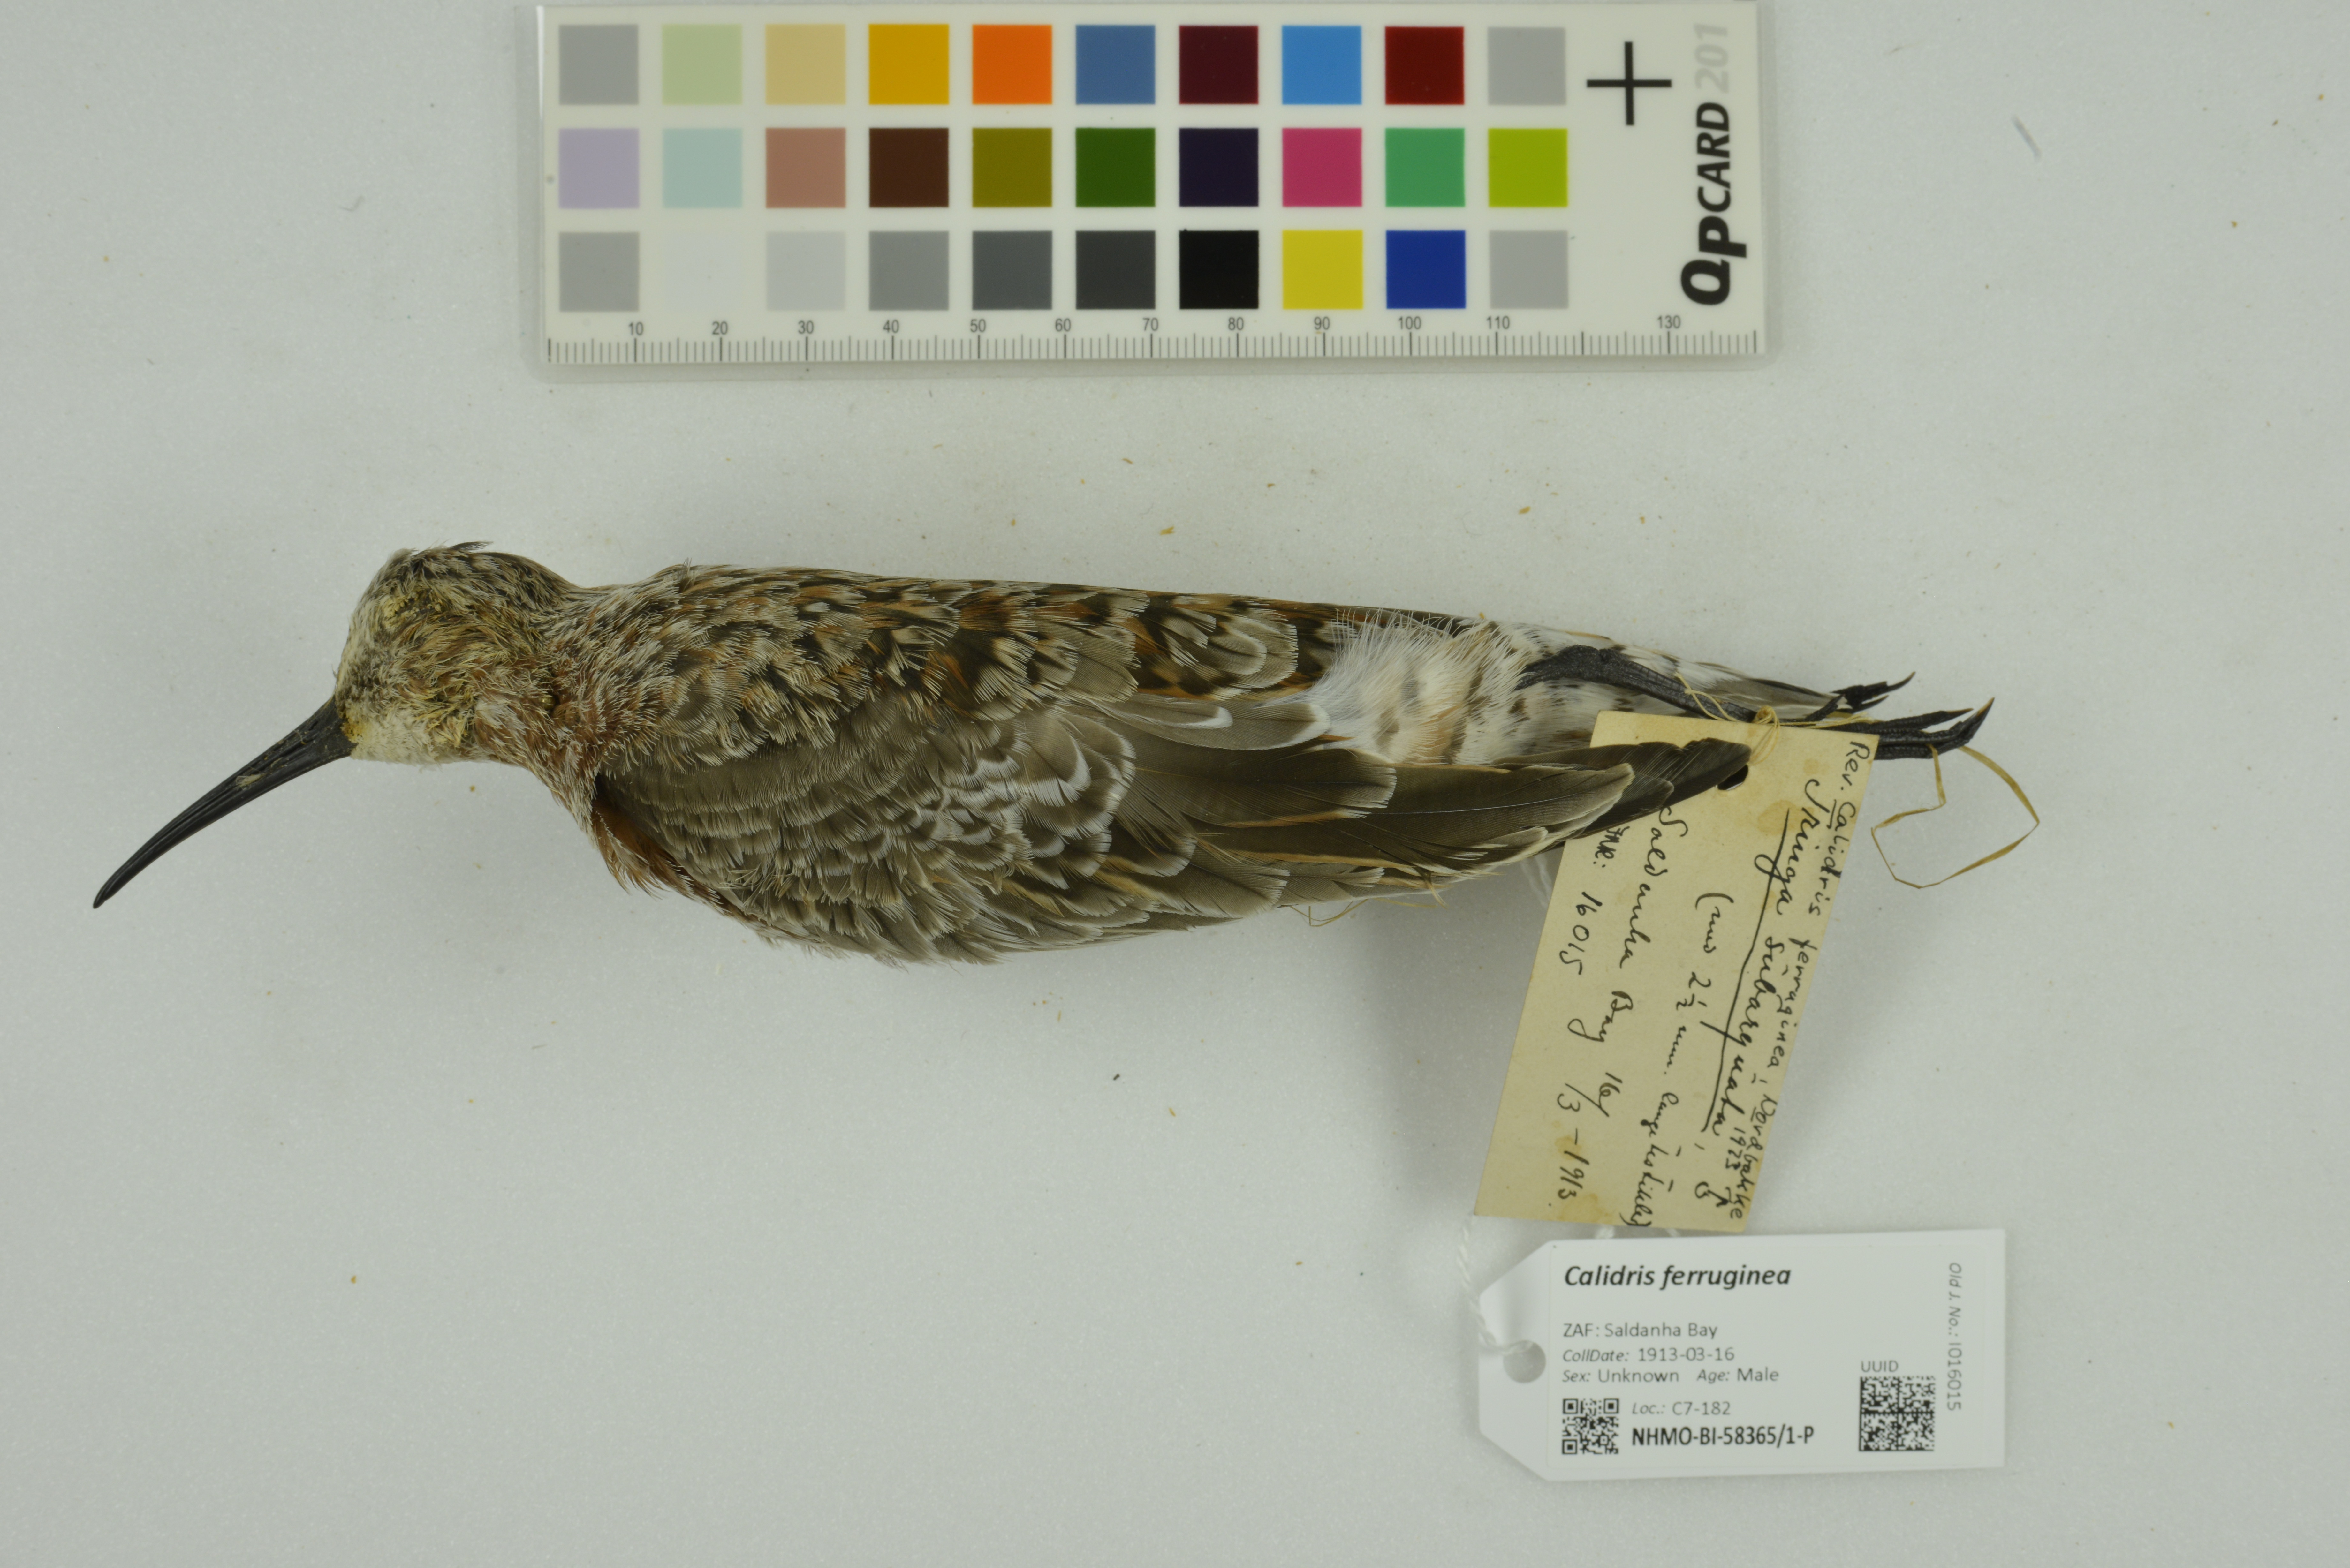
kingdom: Animalia
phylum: Chordata
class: Aves
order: Charadriiformes
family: Scolopacidae
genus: Calidris
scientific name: Calidris ferruginea
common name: Curlew sandpiper
